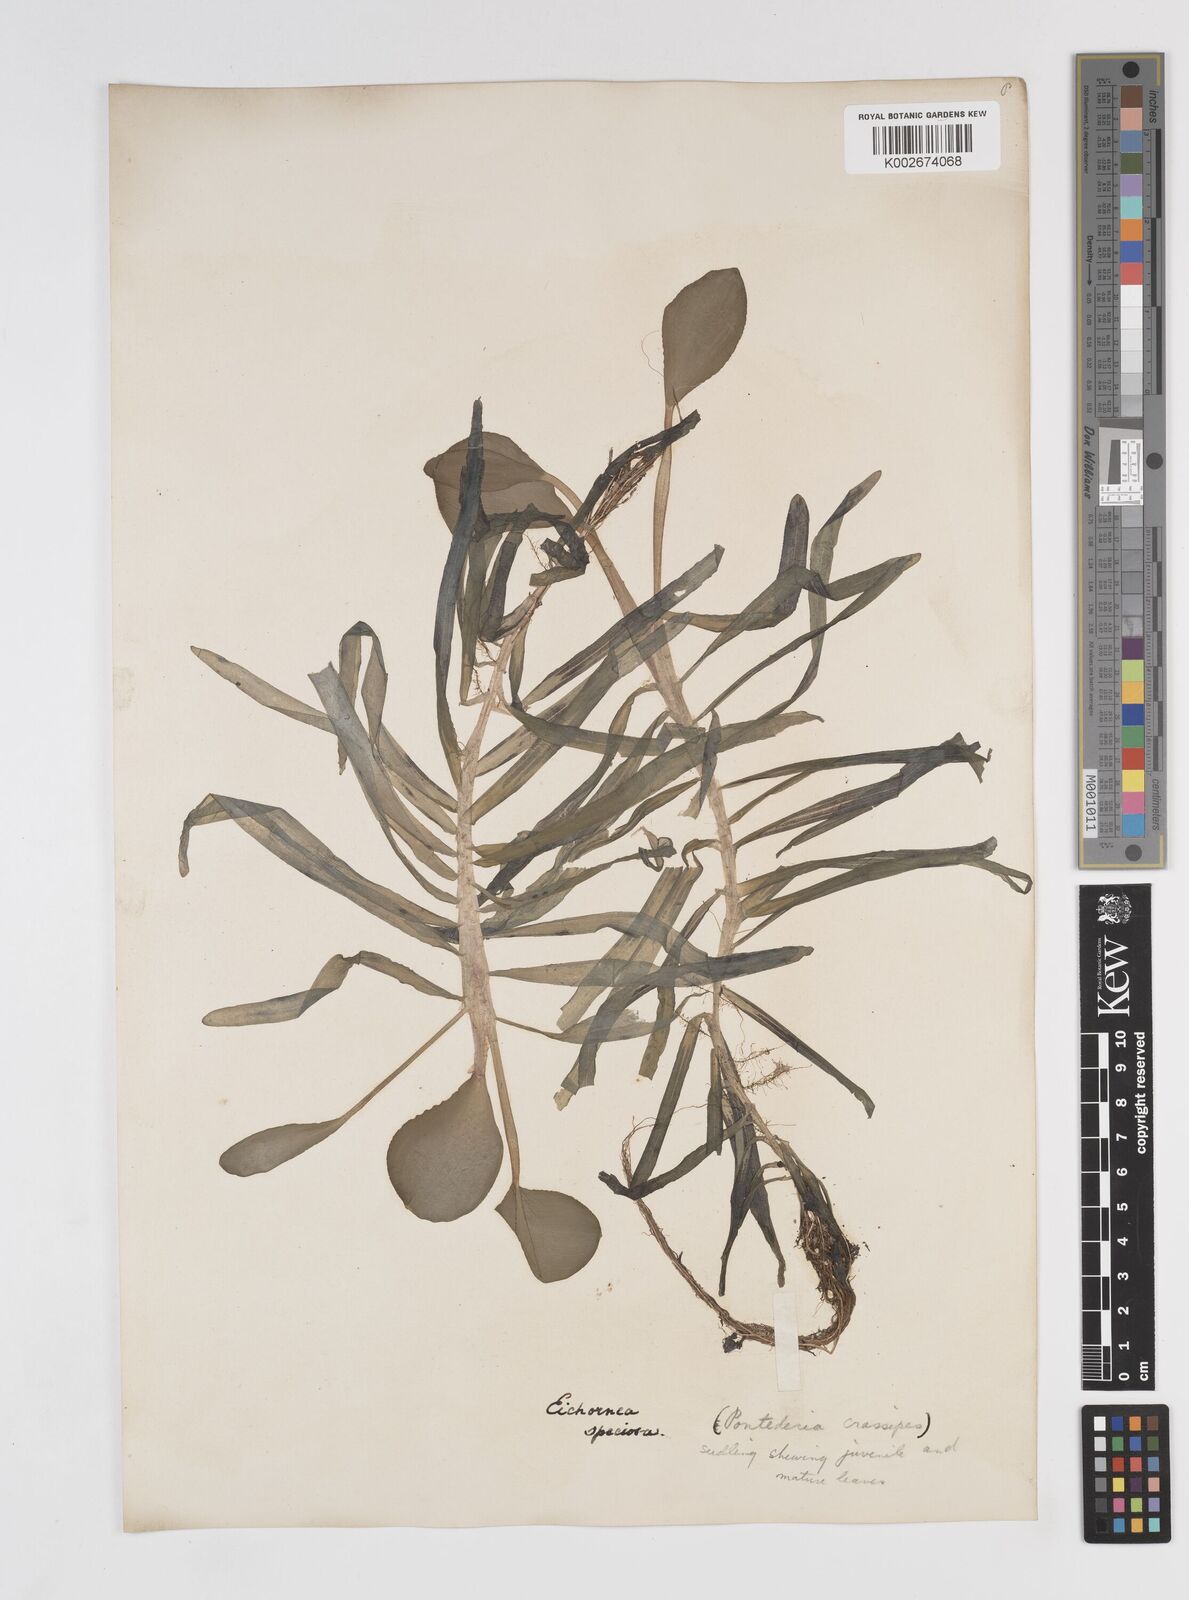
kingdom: Plantae
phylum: Tracheophyta
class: Liliopsida
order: Commelinales
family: Pontederiaceae
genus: Pontederia
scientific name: Pontederia crassipes
